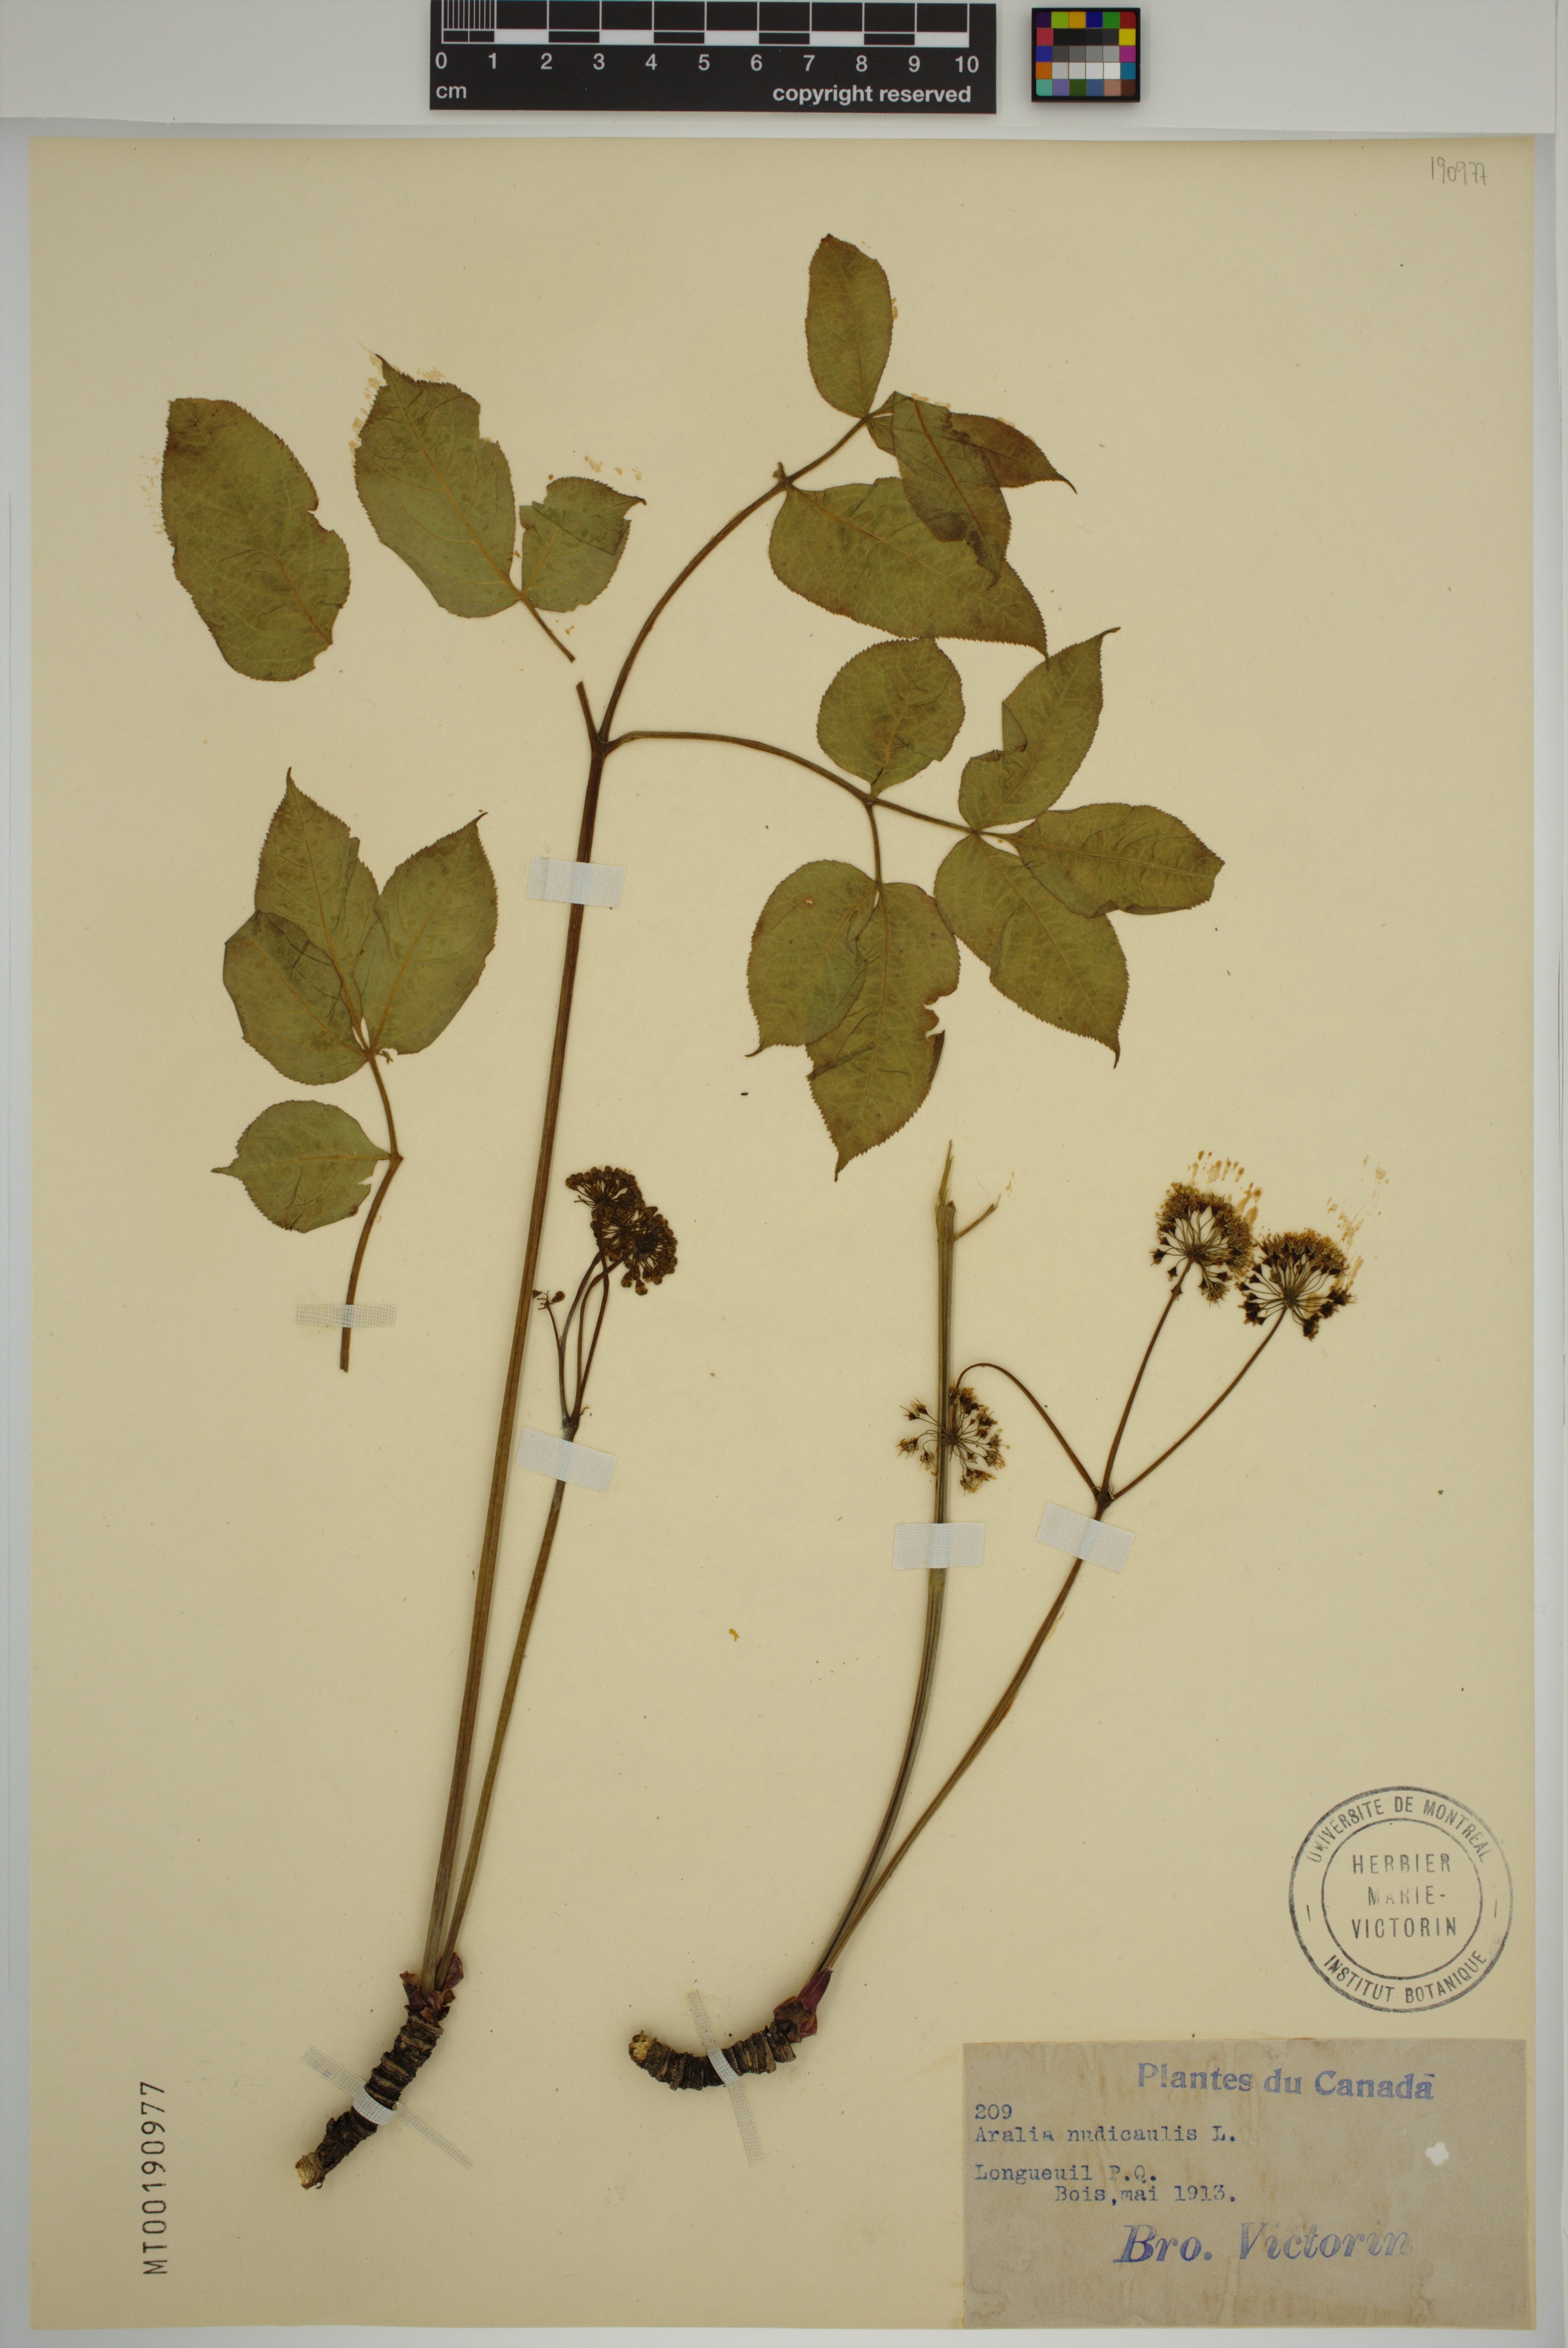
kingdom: Plantae
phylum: Tracheophyta
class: Magnoliopsida
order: Apiales
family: Araliaceae
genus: Aralia
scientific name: Aralia nudicaulis
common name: Wild sarsaparilla
